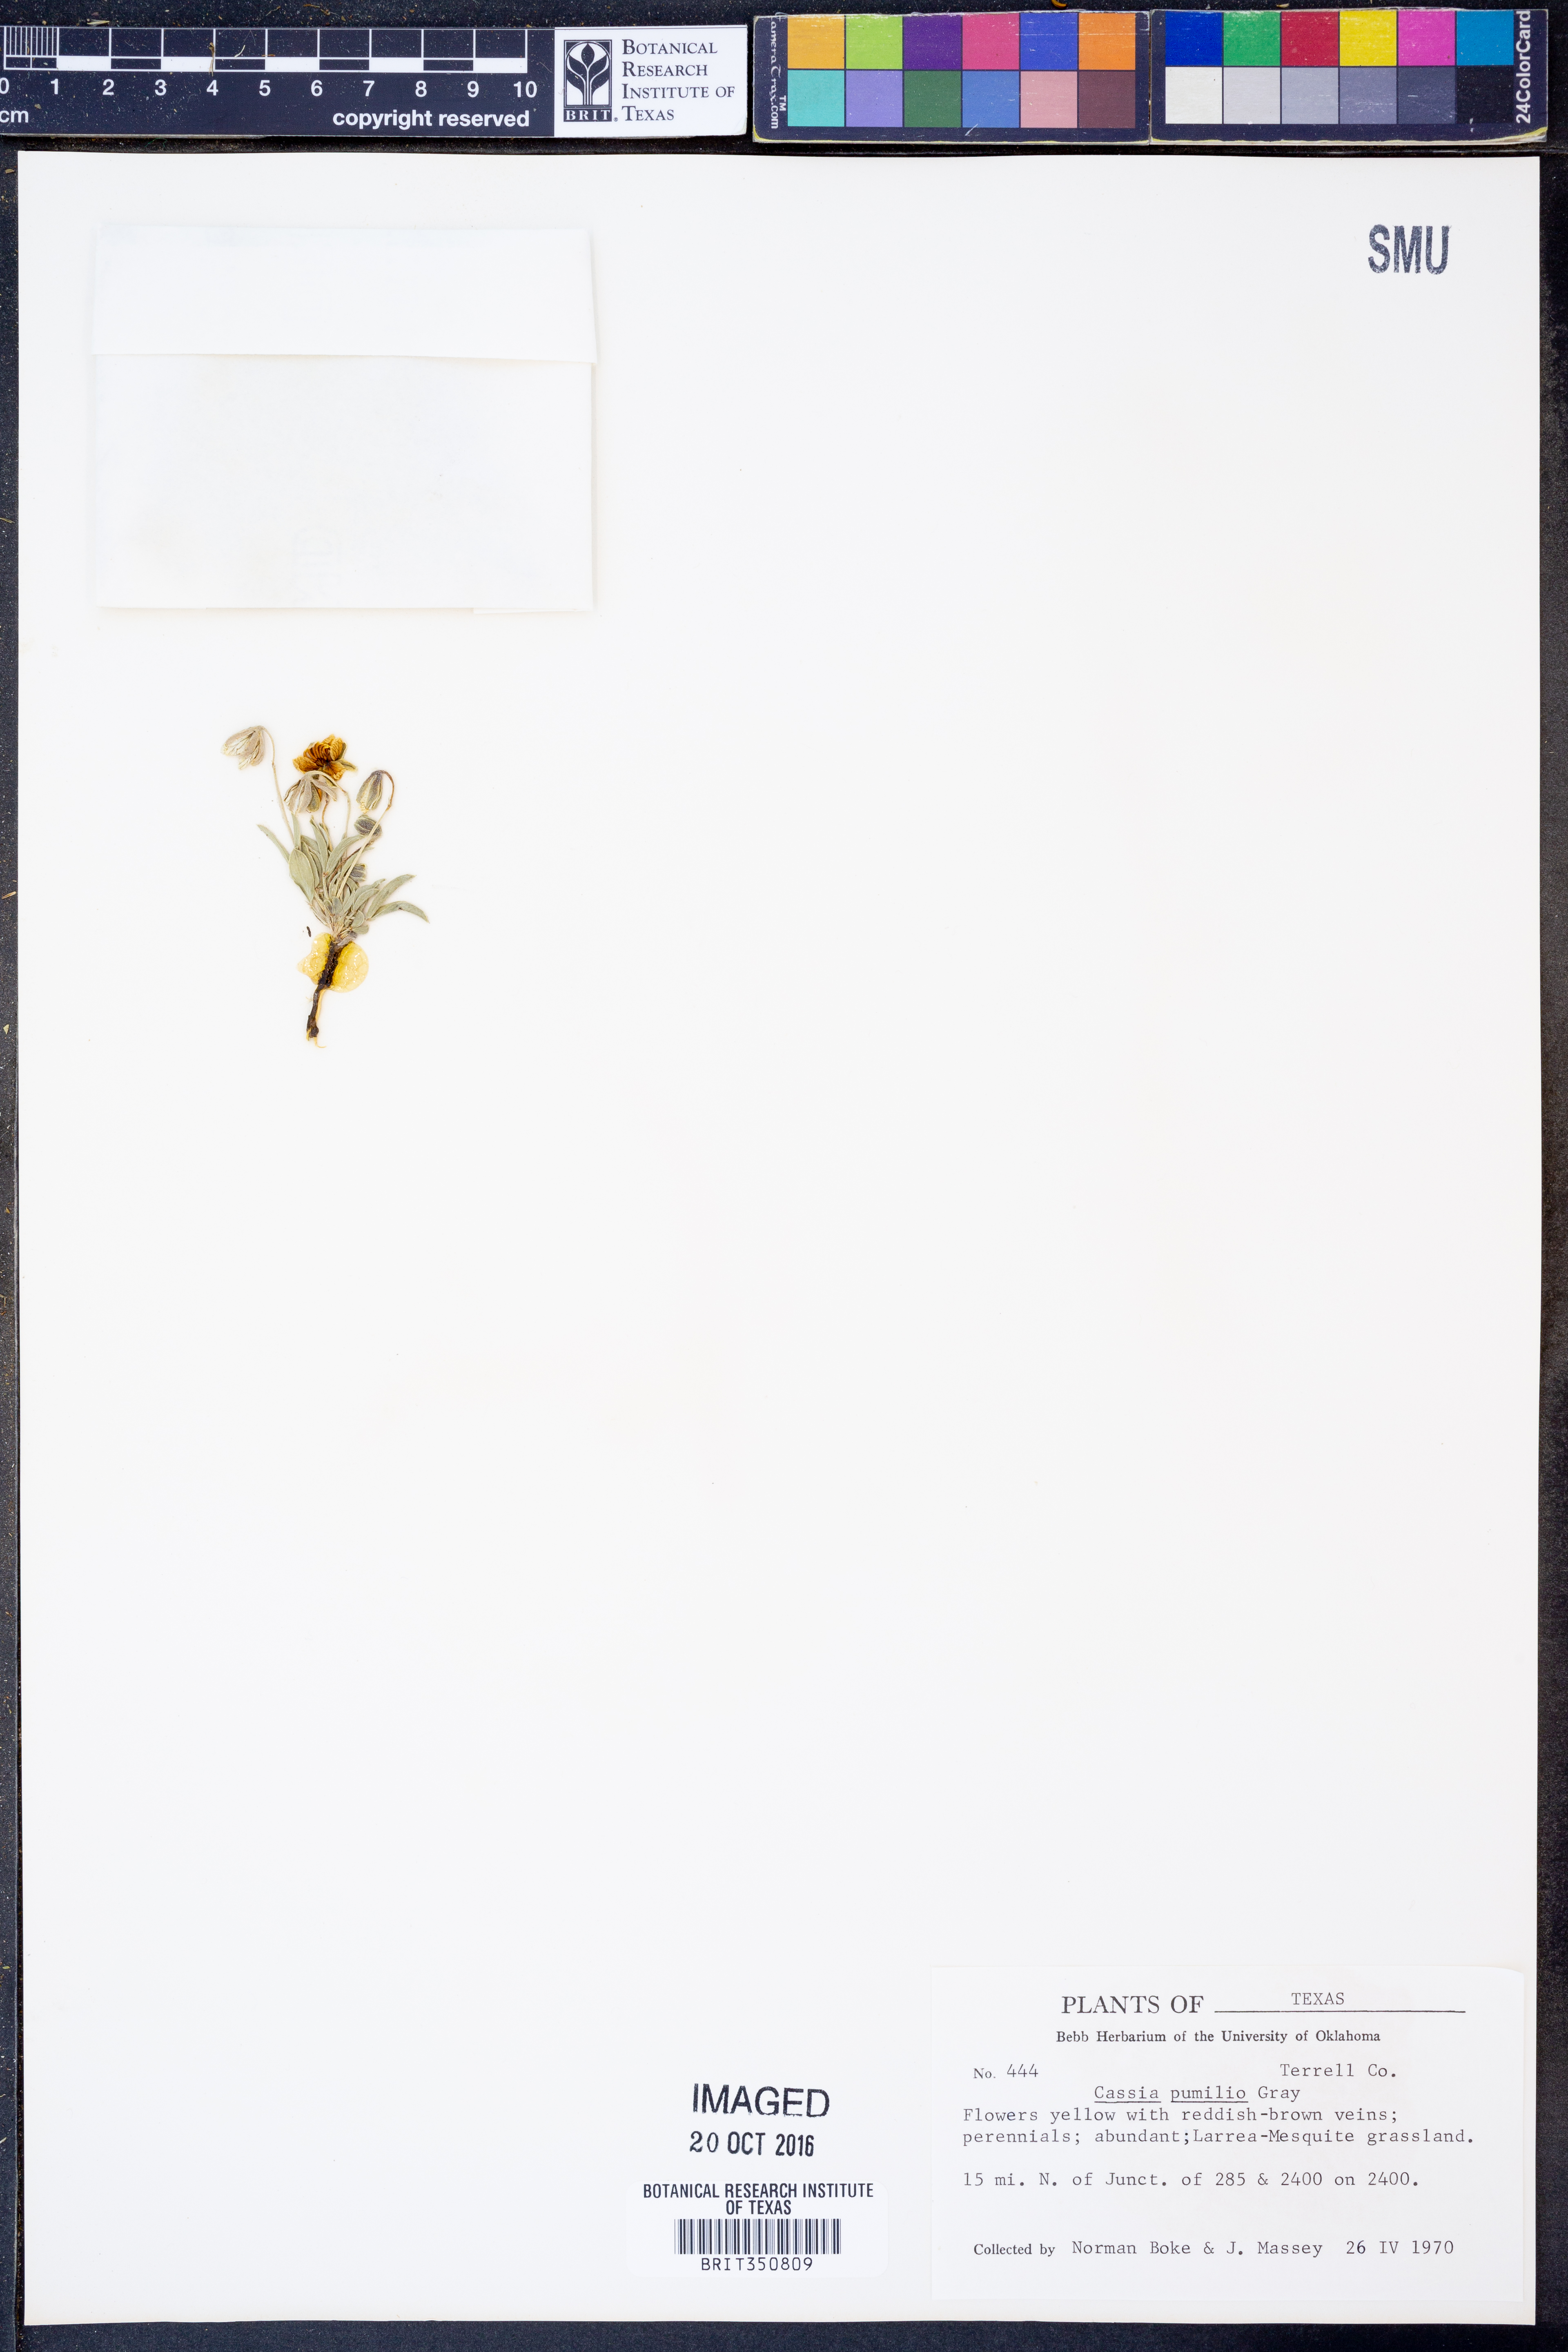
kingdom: Plantae
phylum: Tracheophyta
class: Magnoliopsida
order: Fabales
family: Fabaceae
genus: Senna
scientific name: Senna pumilio
